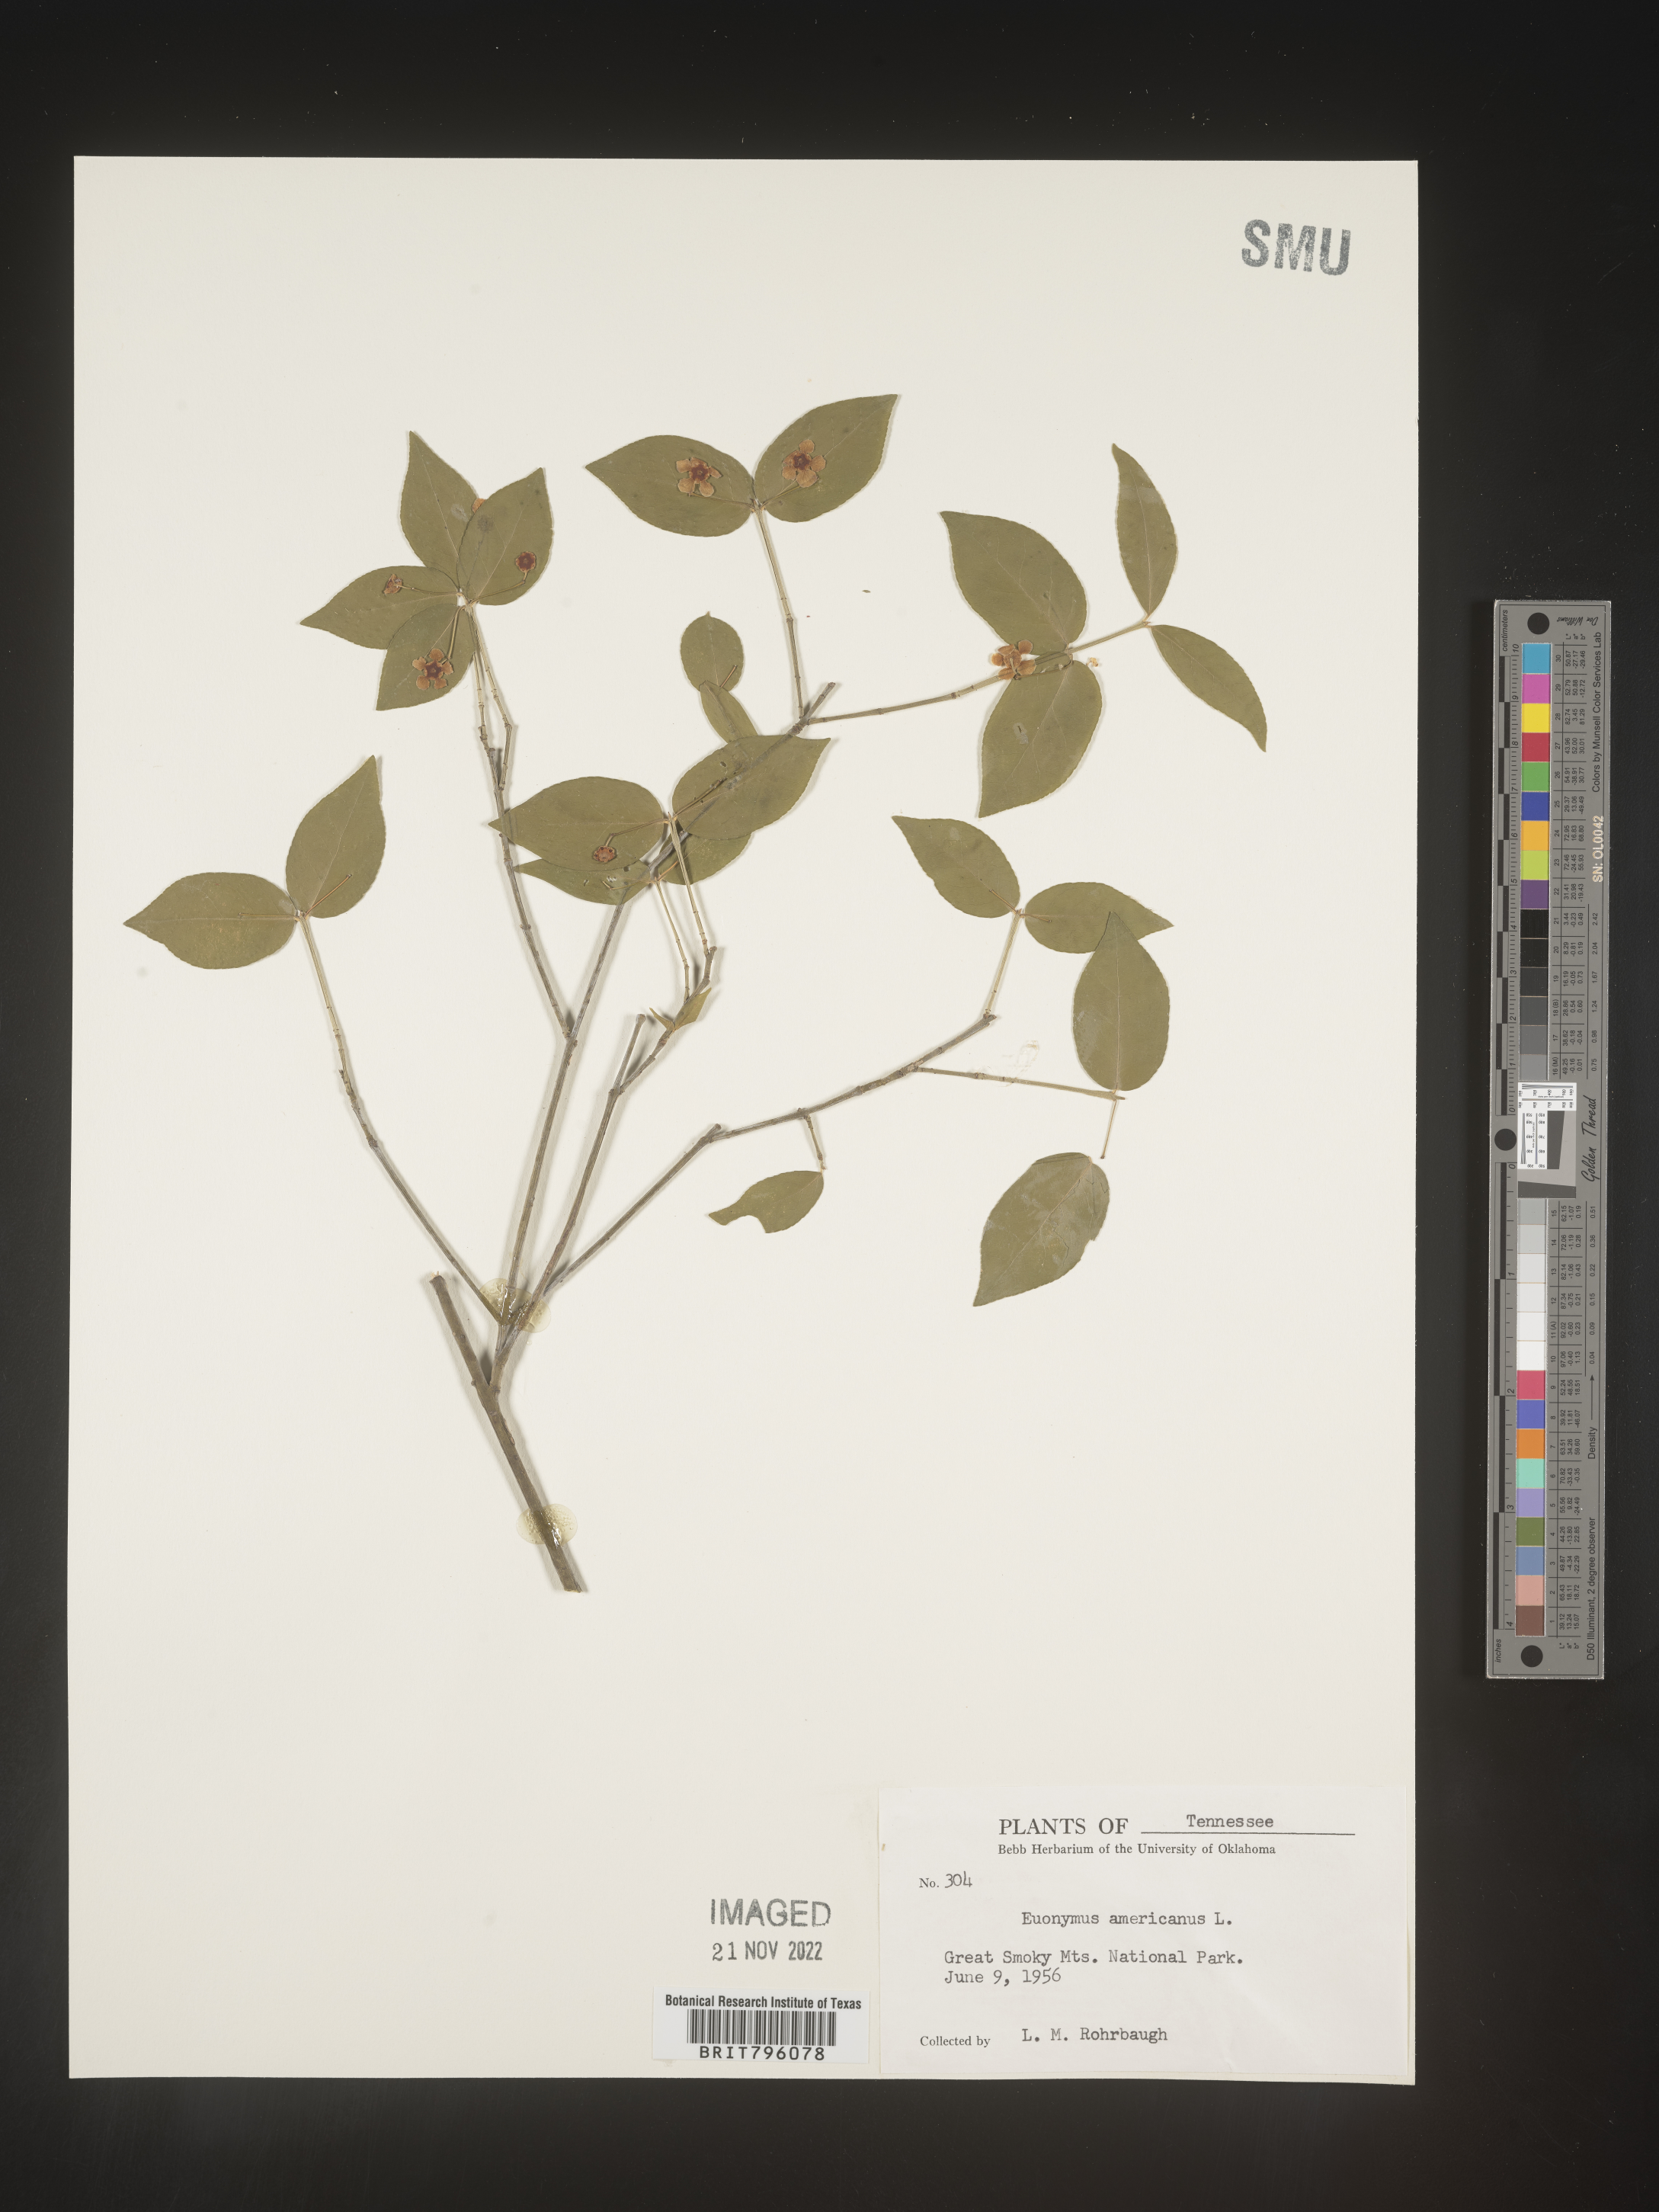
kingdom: Plantae
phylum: Tracheophyta
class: Magnoliopsida
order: Celastrales
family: Celastraceae
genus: Euonymus
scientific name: Euonymus americanus
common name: Bursting-heart
